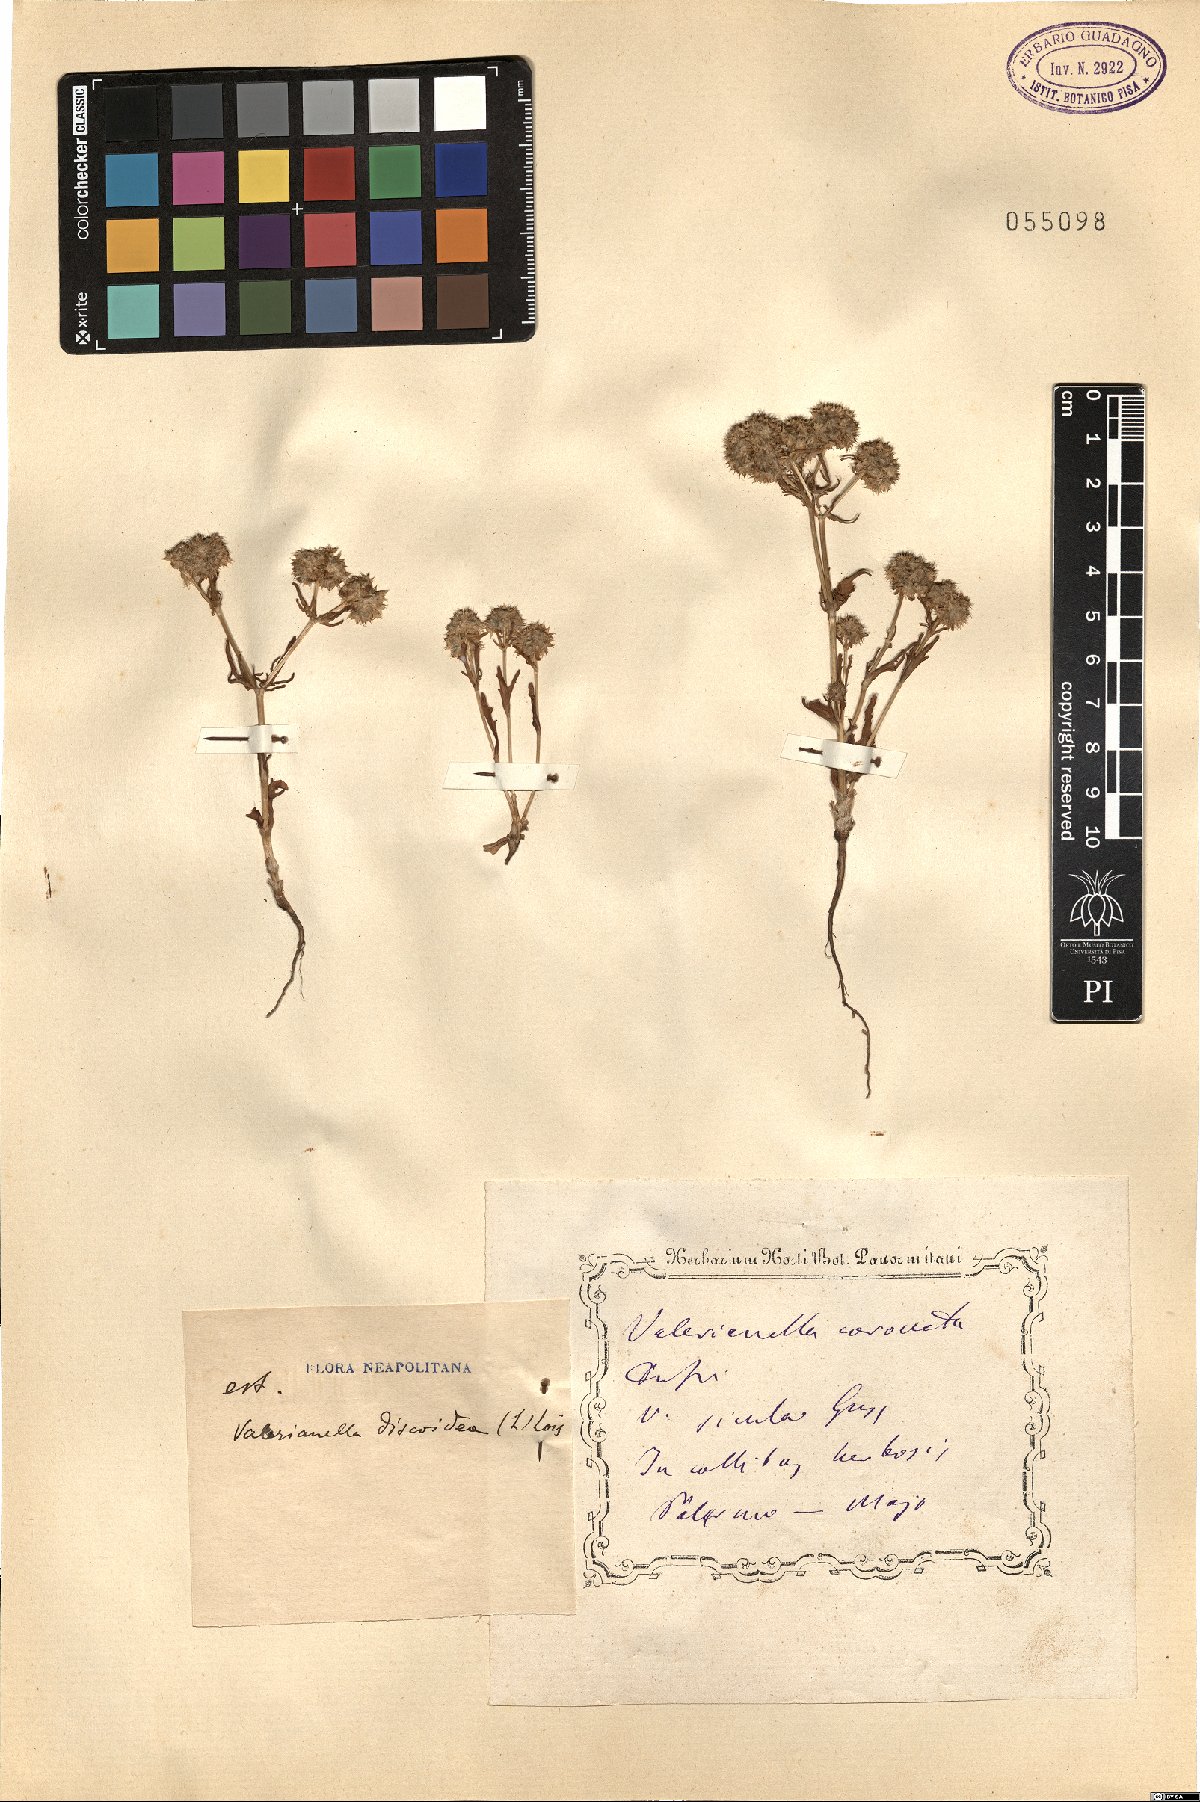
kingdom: Plantae
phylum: Tracheophyta
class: Magnoliopsida
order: Dipsacales
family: Caprifoliaceae
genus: Valerianella
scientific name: Valerianella discoidea
